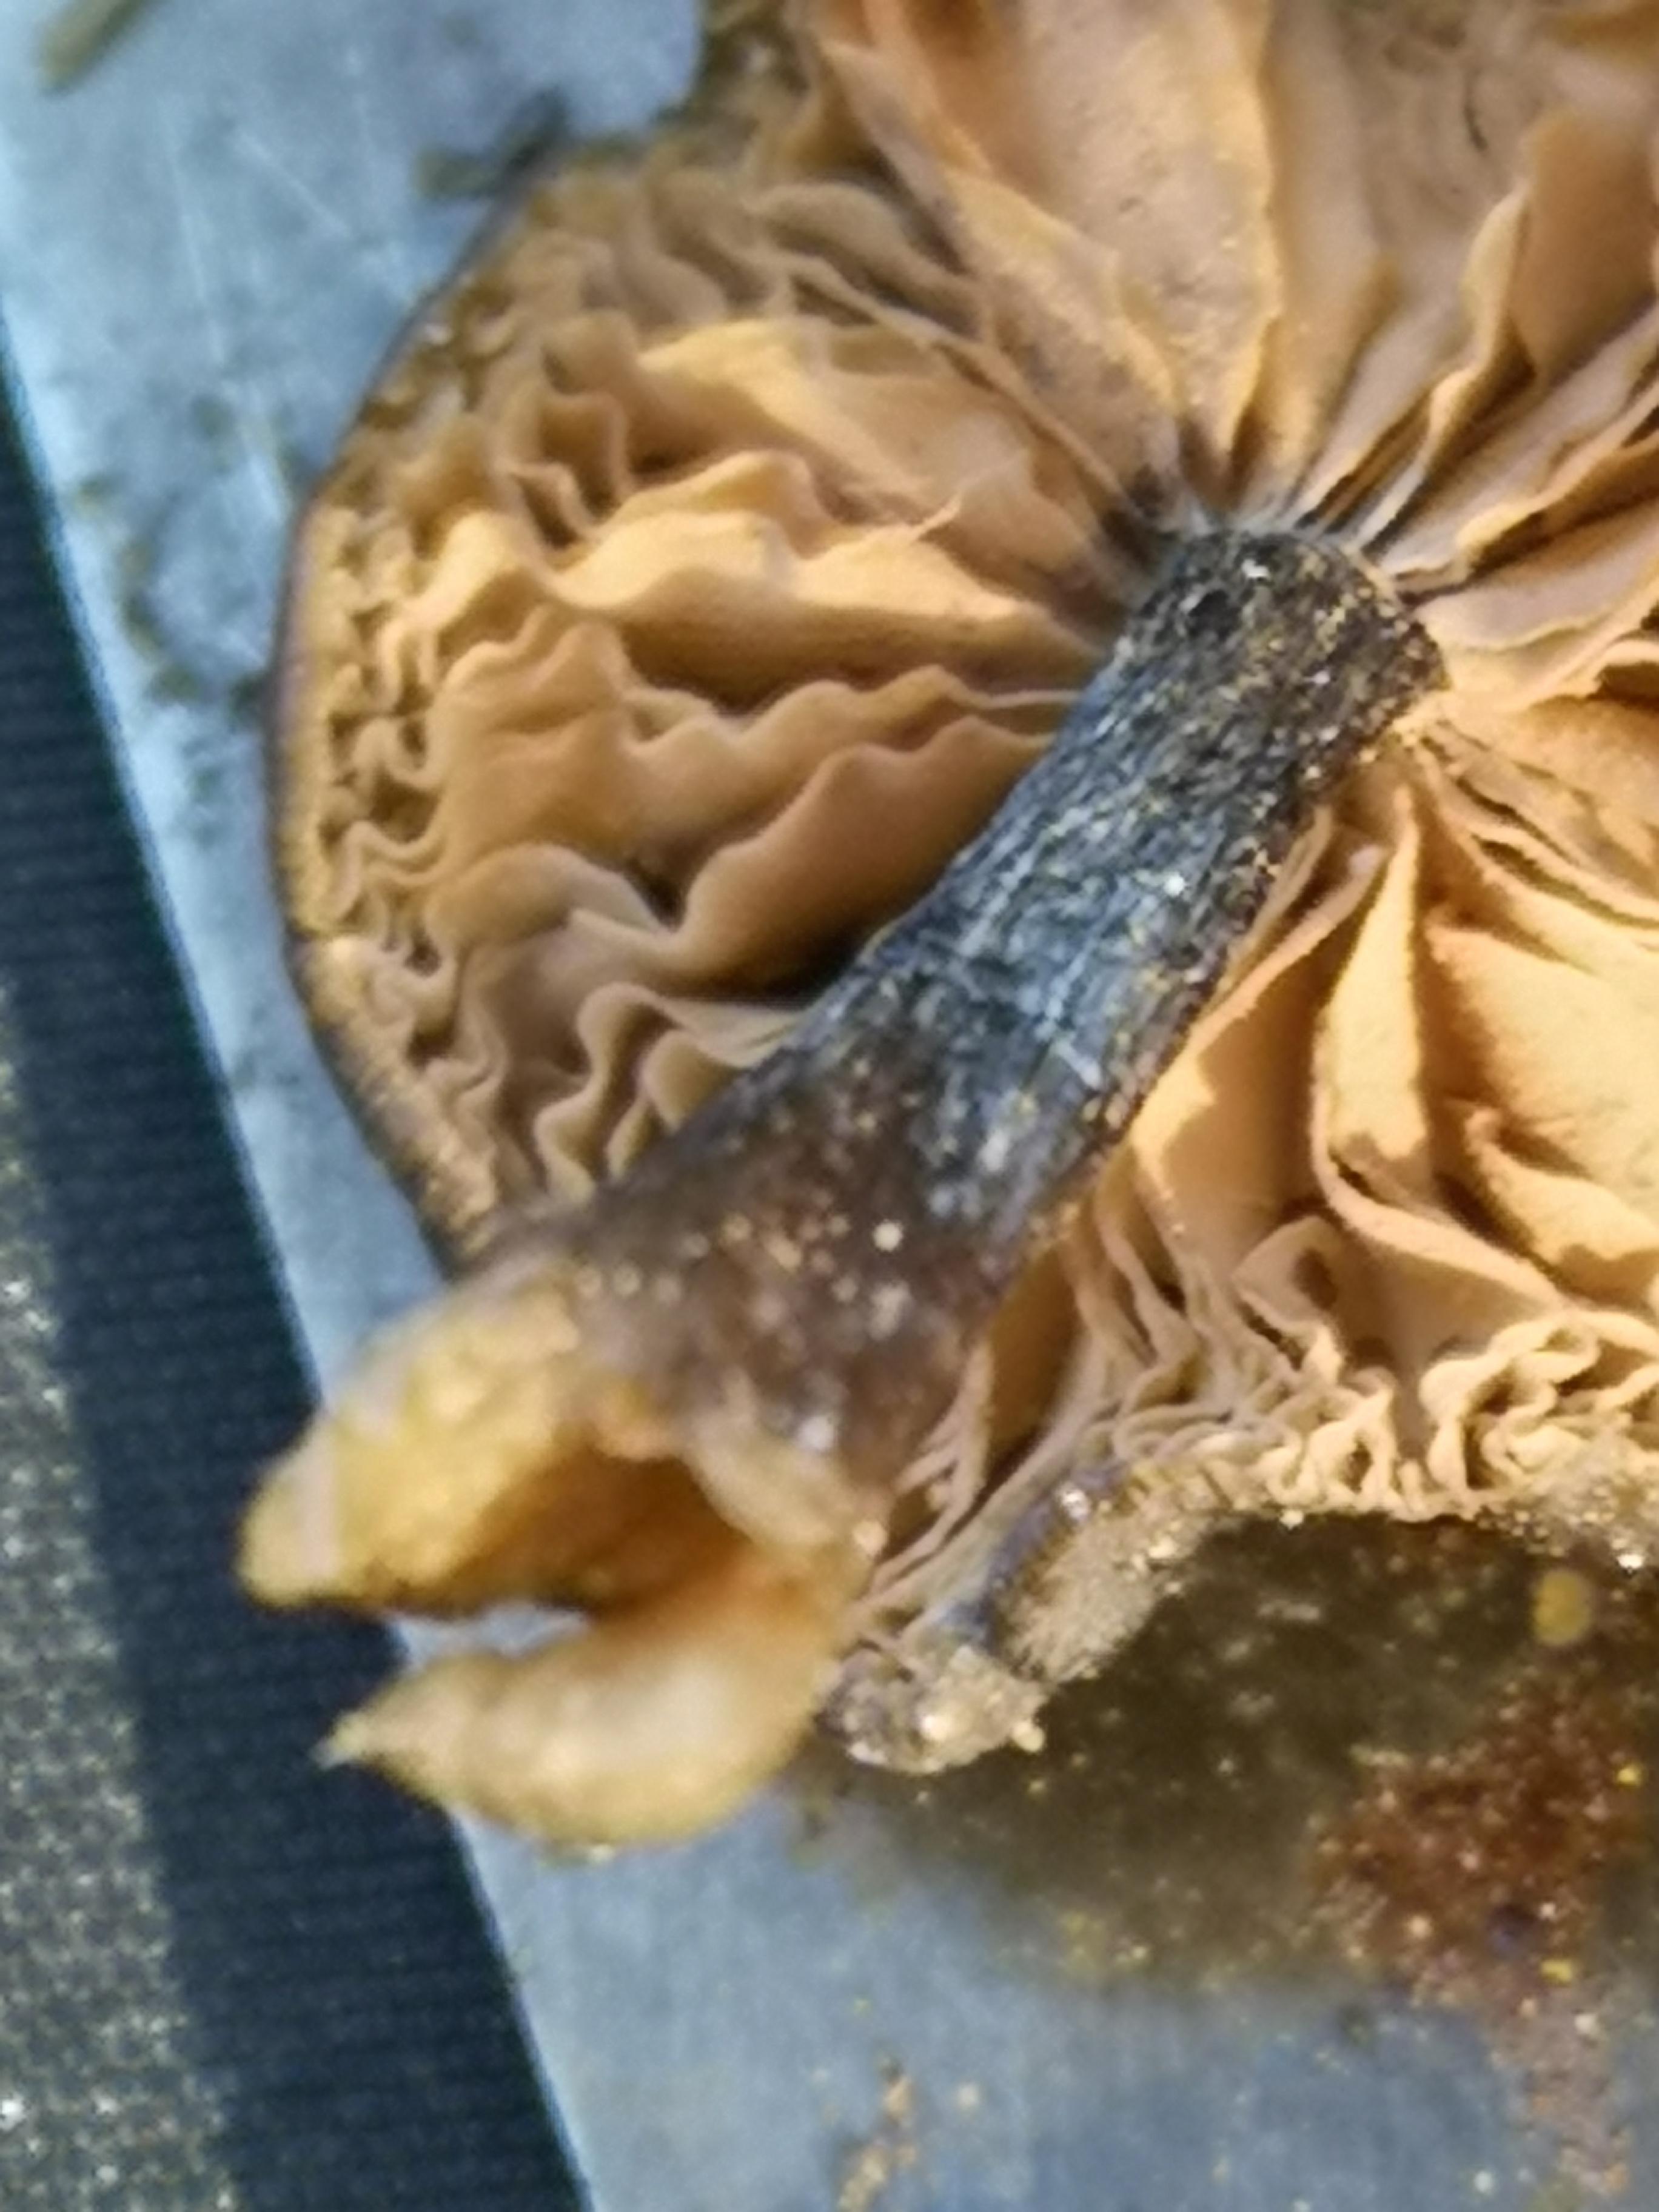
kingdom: Fungi
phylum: Basidiomycota
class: Agaricomycetes
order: Agaricales
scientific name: Agaricales
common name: champignonordenen
